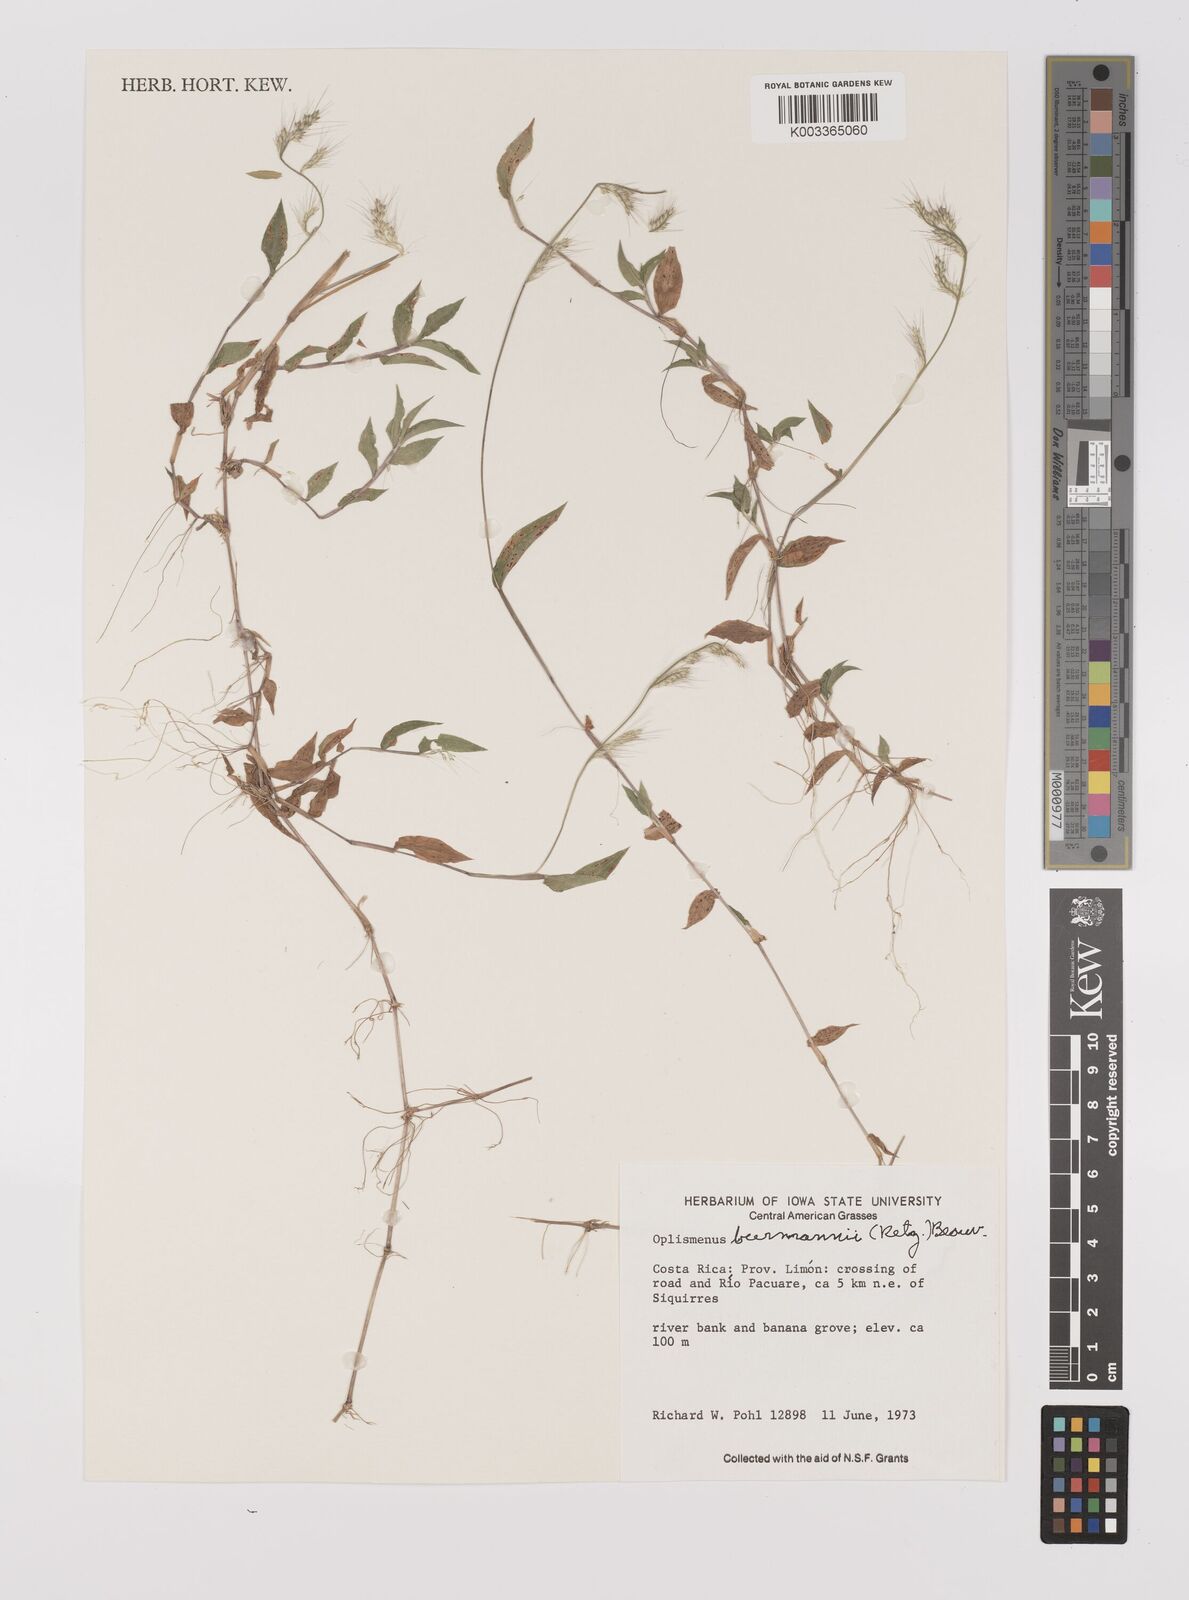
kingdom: Plantae
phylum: Tracheophyta
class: Liliopsida
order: Poales
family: Poaceae
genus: Oplismenus
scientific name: Oplismenus burmanni
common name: Burmann's basketgrass
